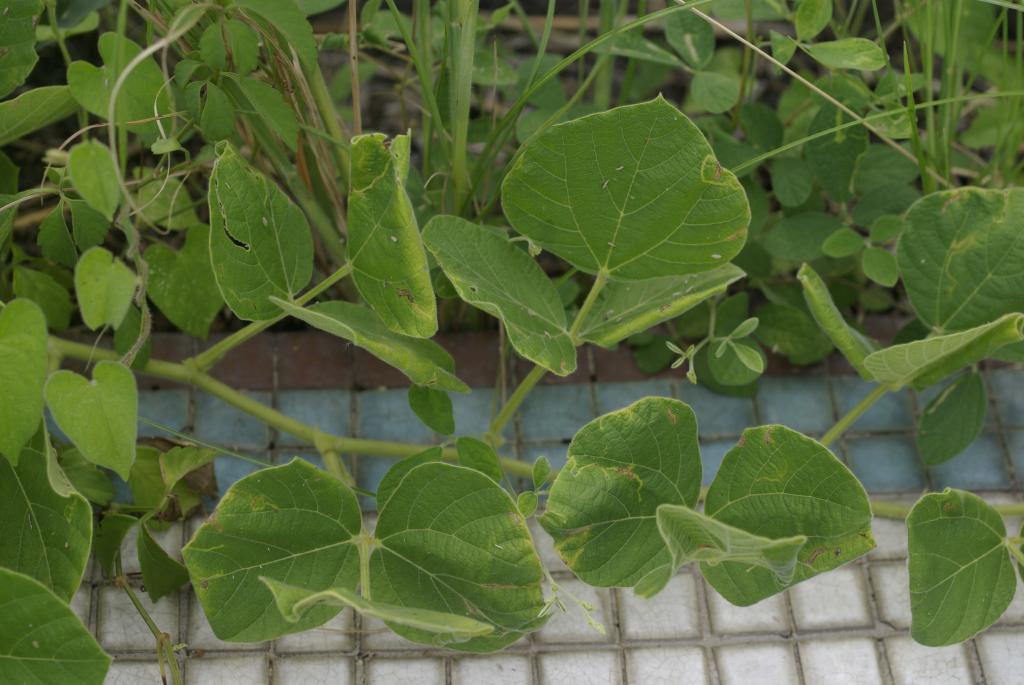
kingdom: Plantae
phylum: Tracheophyta
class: Magnoliopsida
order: Fabales
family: Fabaceae
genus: Rhynchosia
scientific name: Rhynchosia rothii
